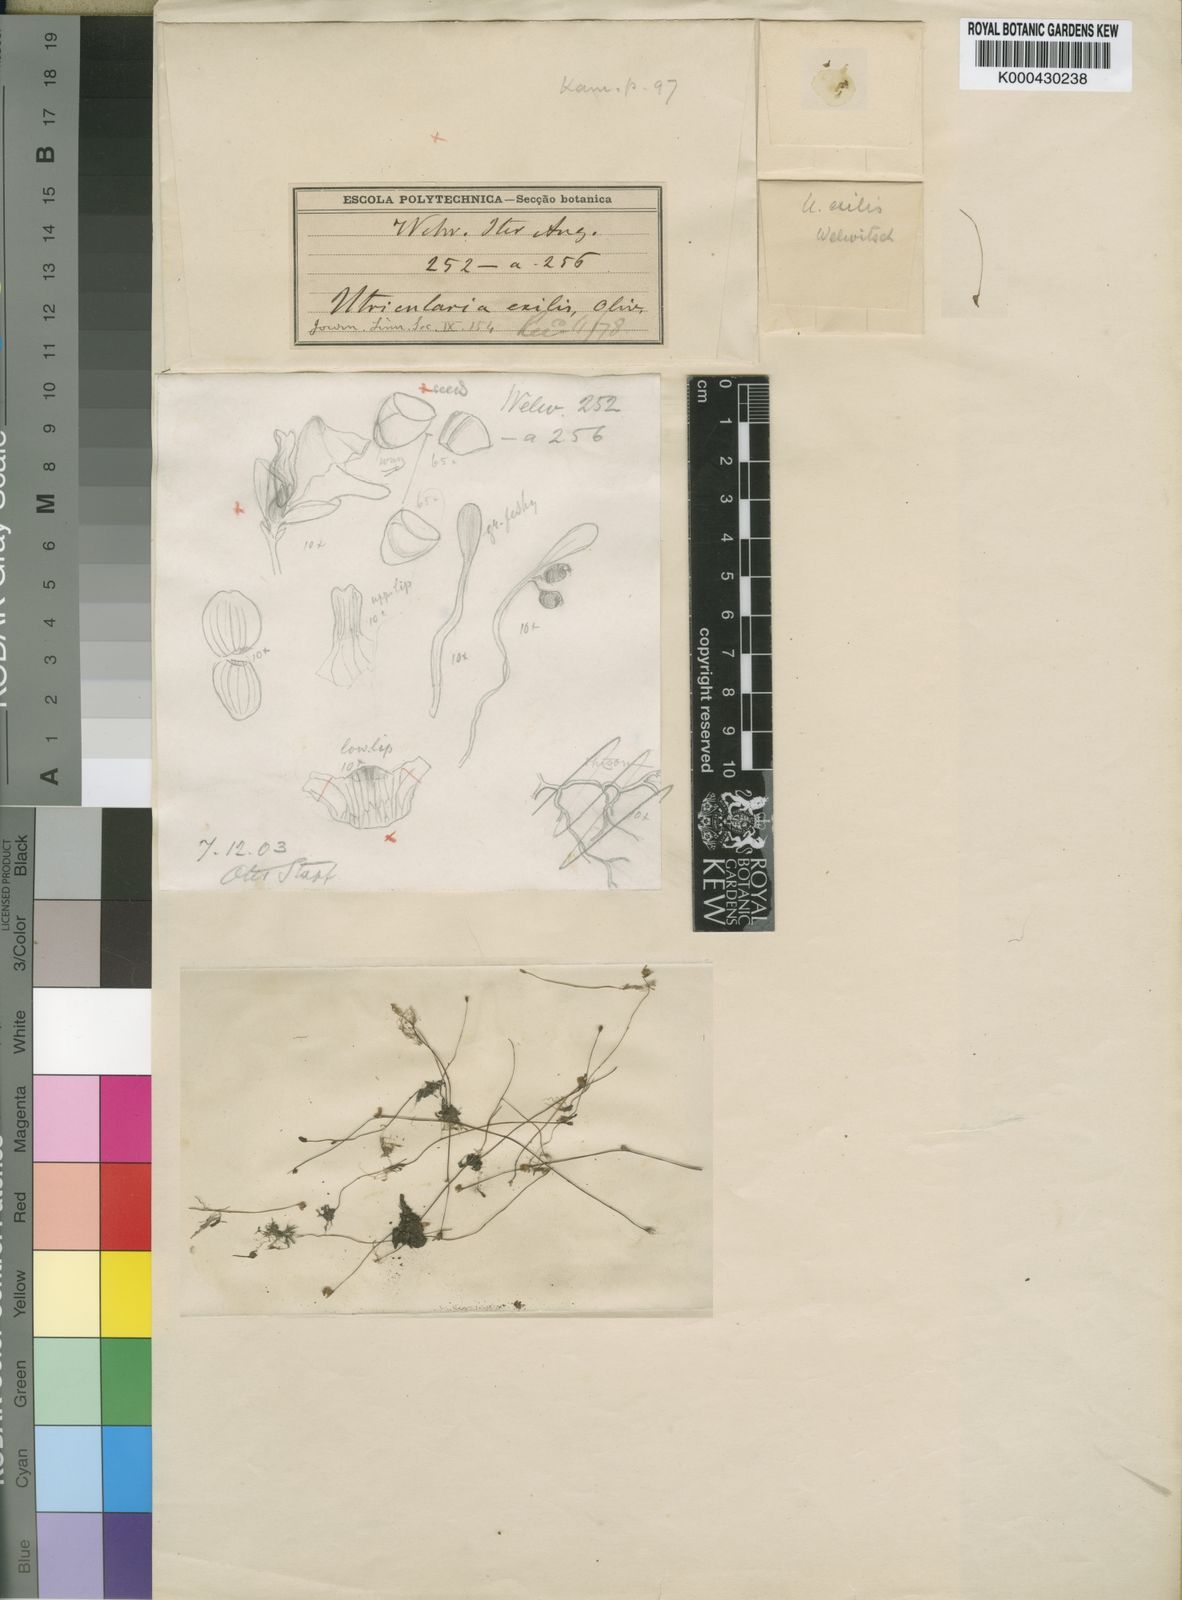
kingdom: Plantae
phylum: Tracheophyta
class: Magnoliopsida
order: Lamiales
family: Lentibulariaceae
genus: Utricularia
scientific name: Utricularia arenaria
